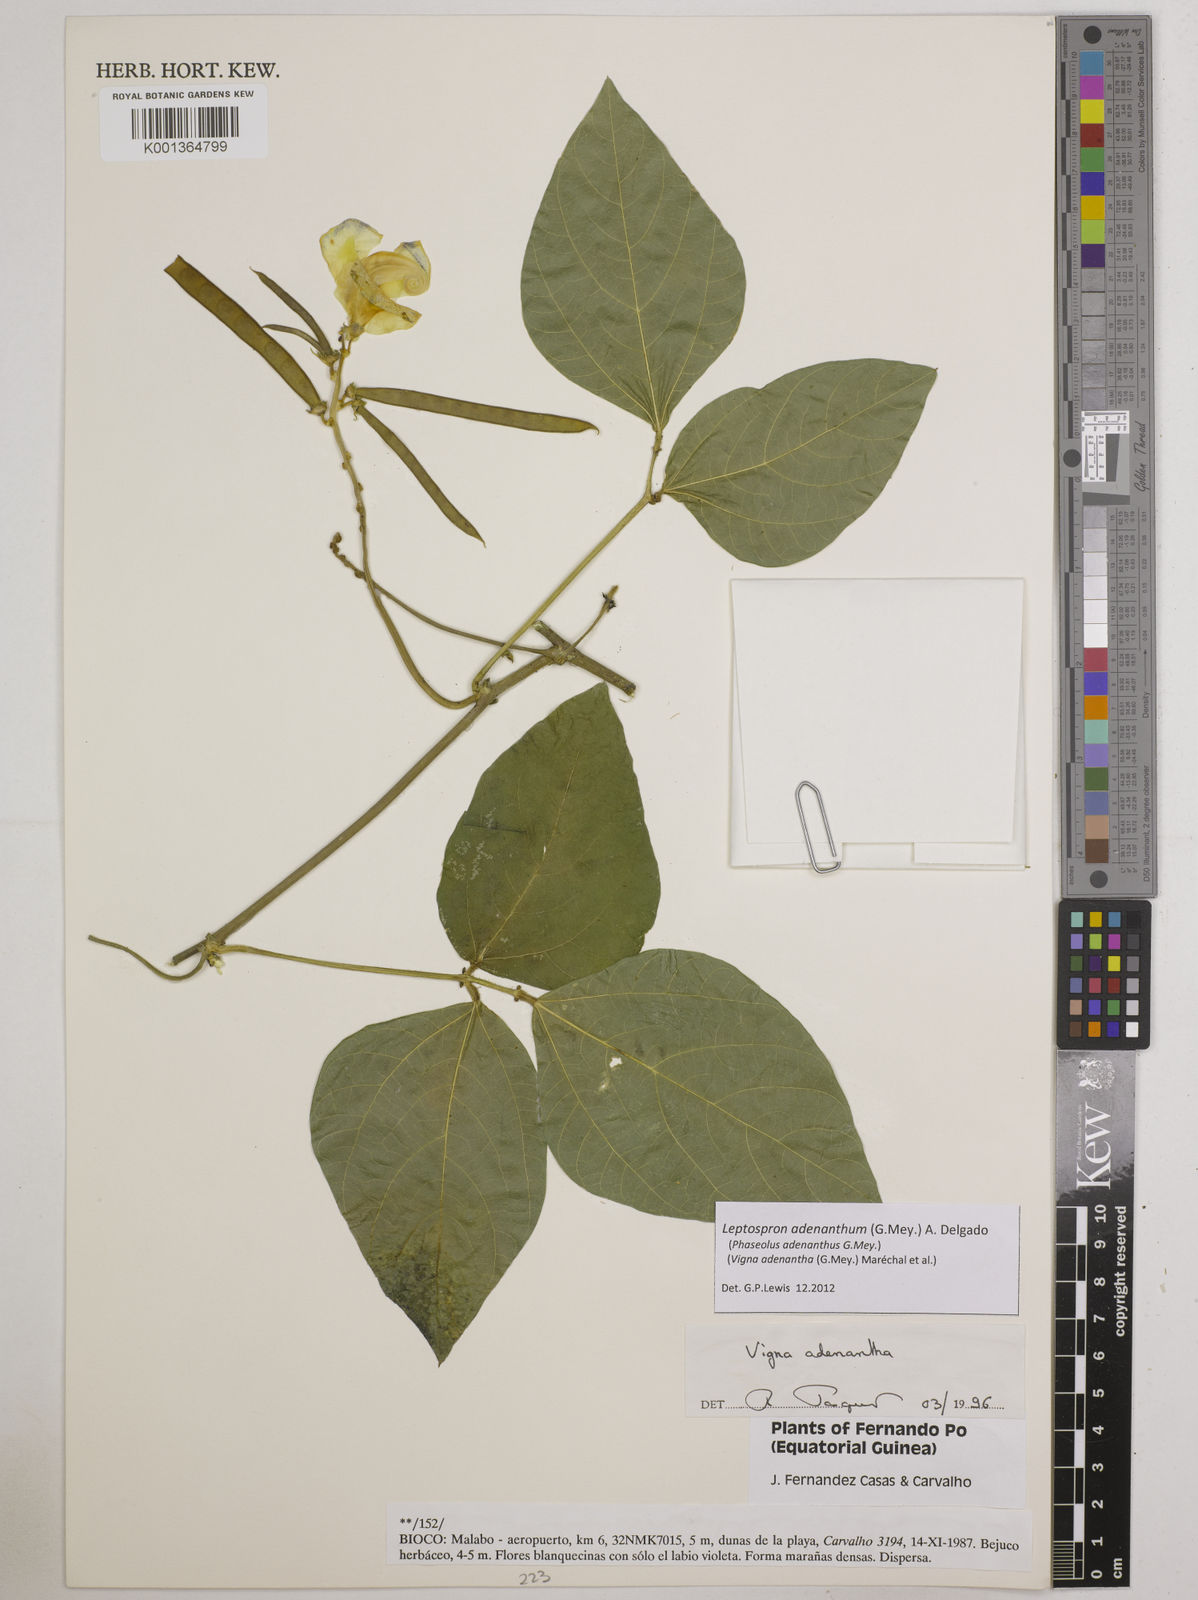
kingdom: Plantae
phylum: Tracheophyta
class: Magnoliopsida
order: Fabales
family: Fabaceae
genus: Leptospron
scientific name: Leptospron adenanthum
